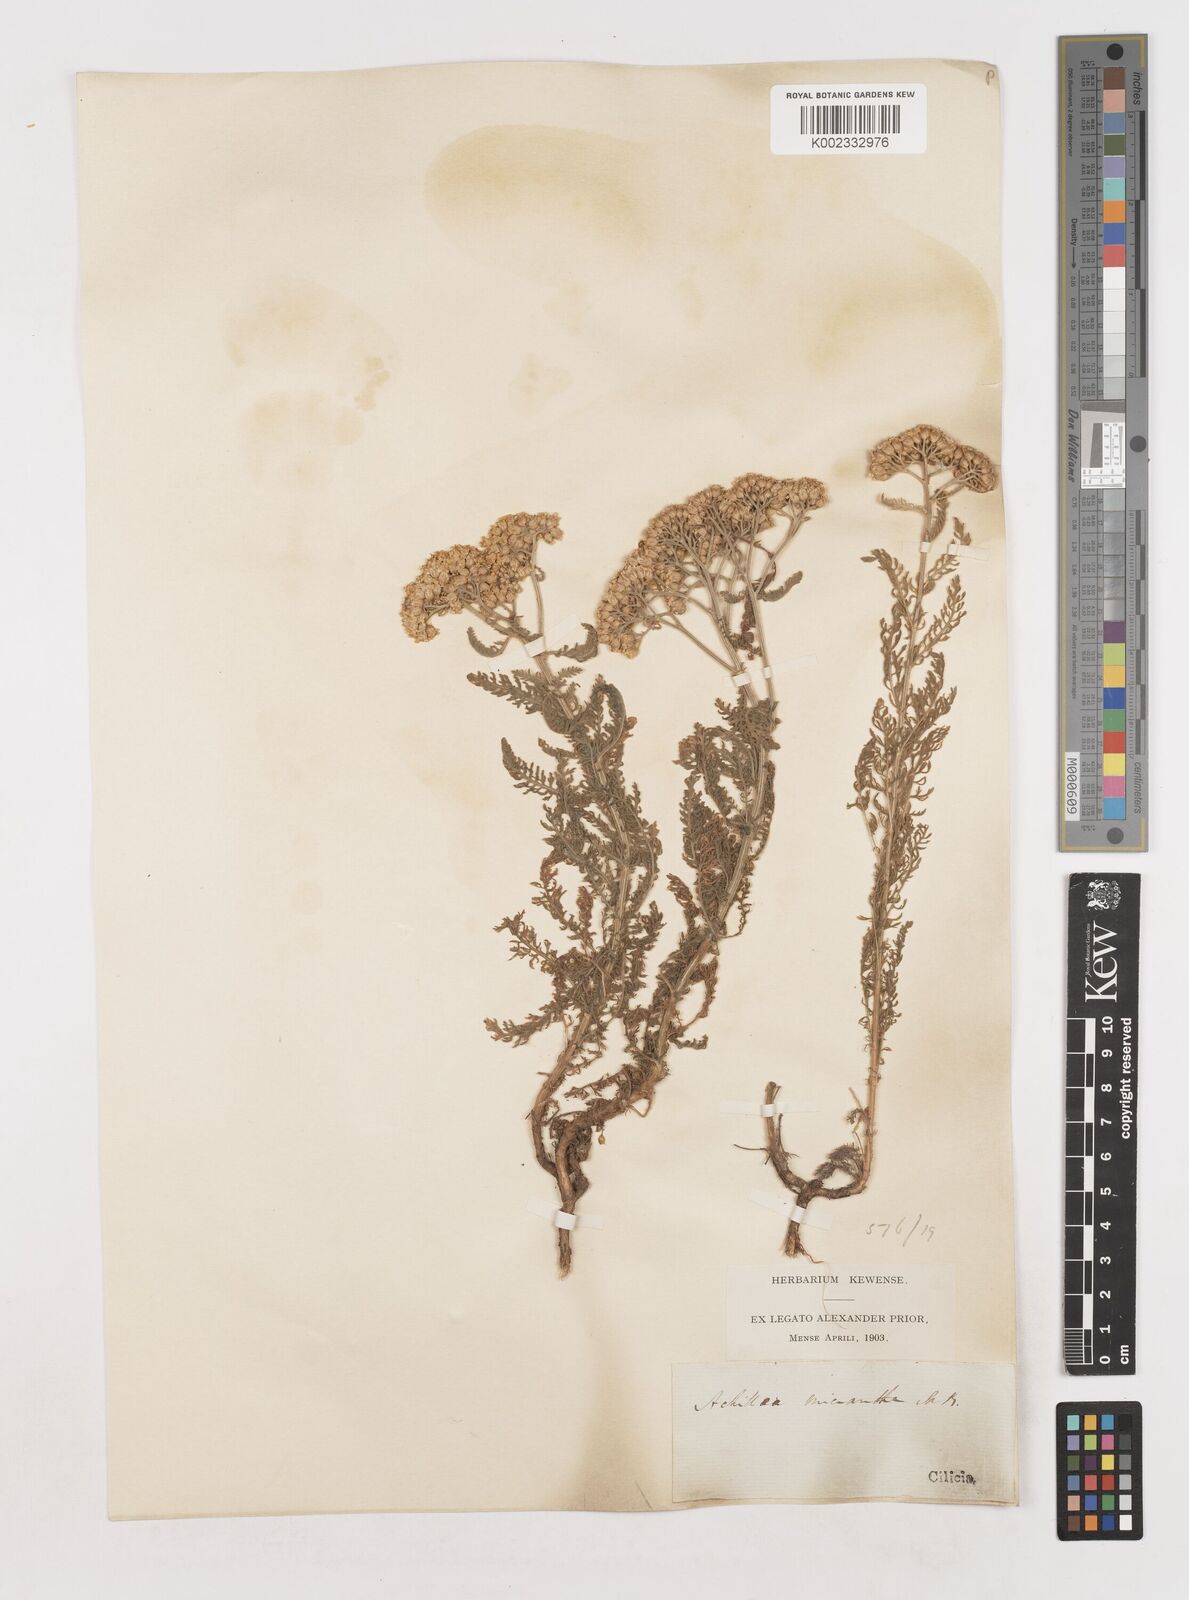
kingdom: Plantae
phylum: Tracheophyta
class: Magnoliopsida
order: Asterales
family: Asteraceae
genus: Achillea
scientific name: Achillea arabica
